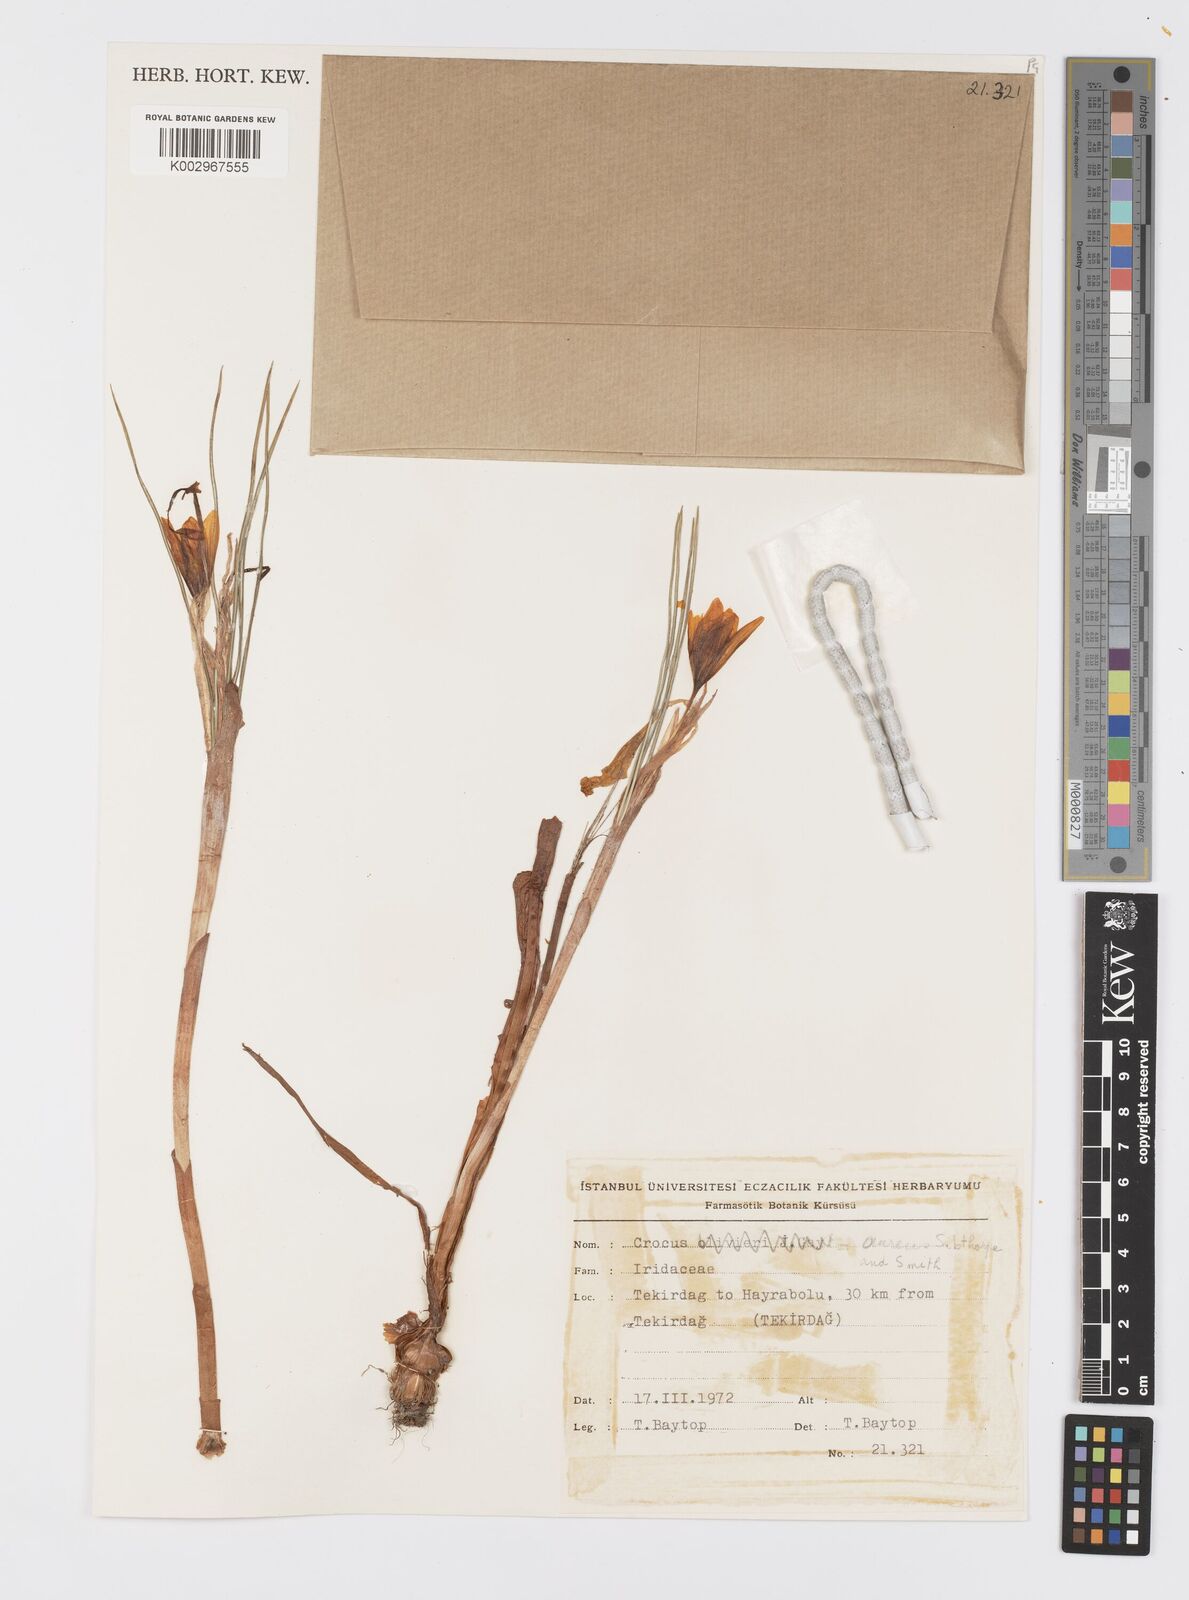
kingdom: Plantae
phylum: Tracheophyta
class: Liliopsida
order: Asparagales
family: Iridaceae
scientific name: Iridaceae
